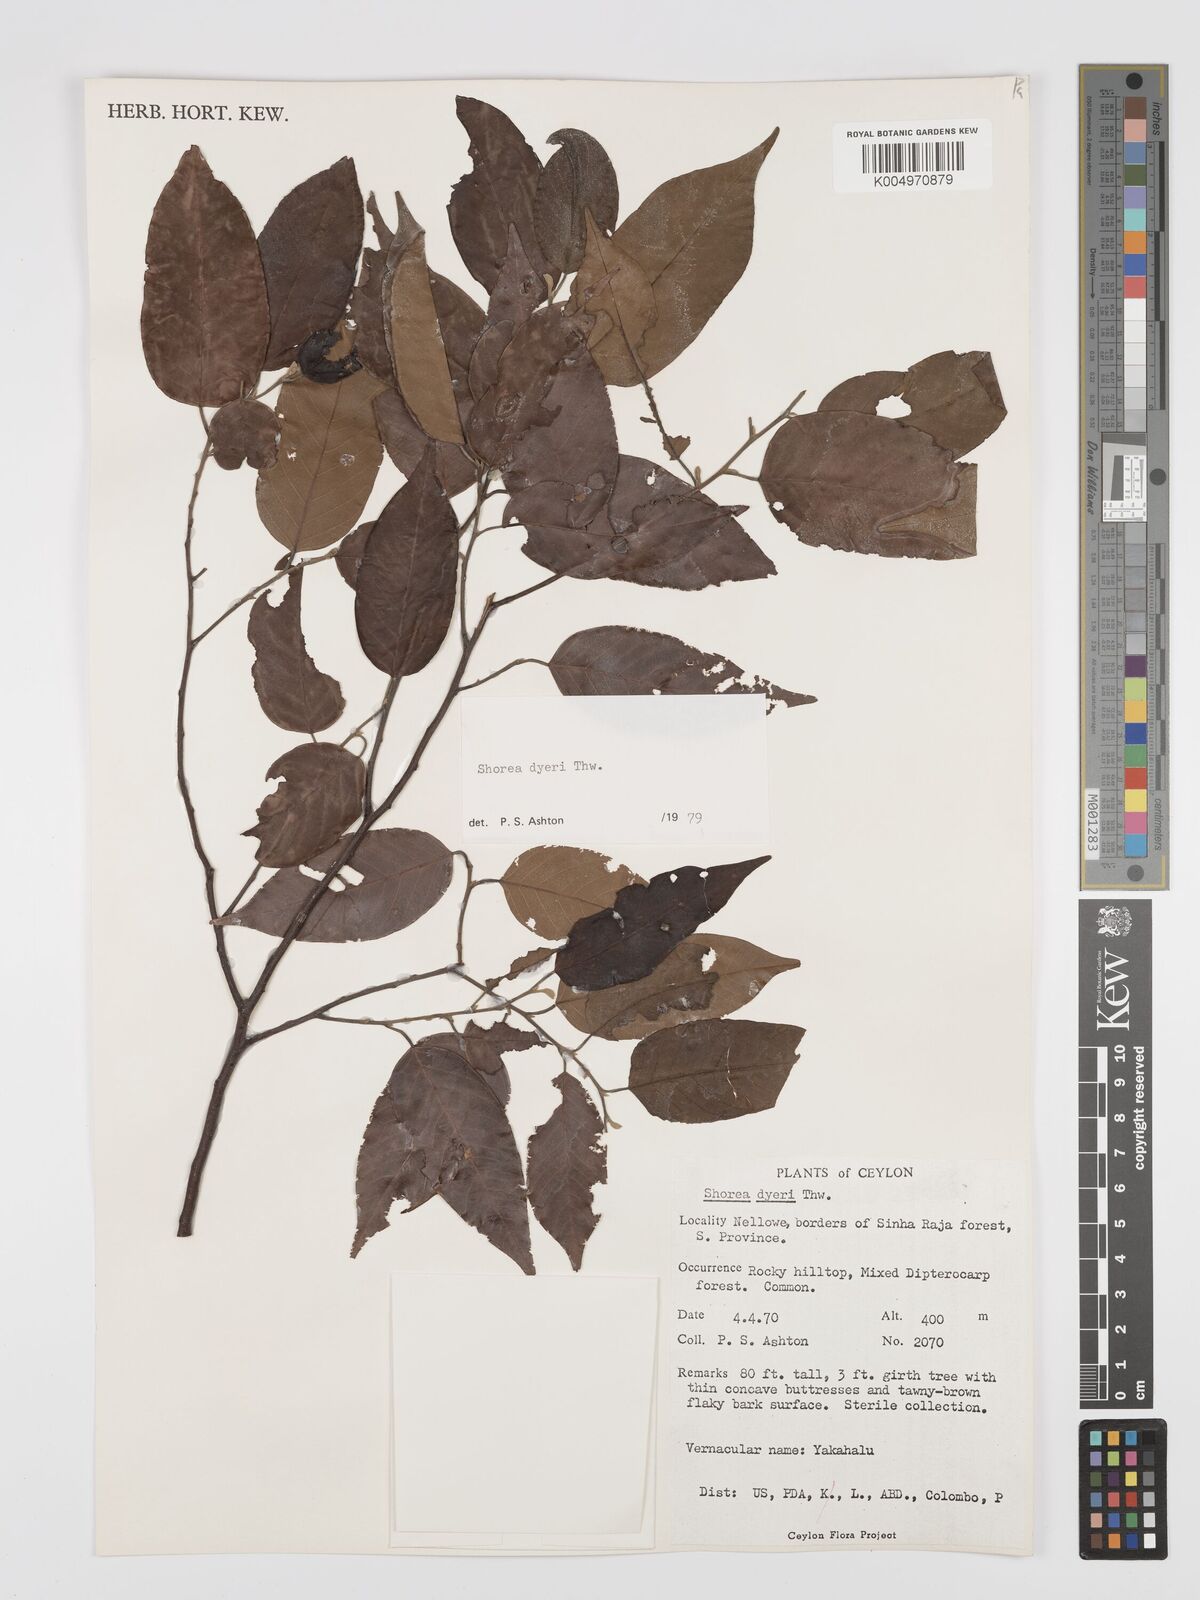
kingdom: Plantae
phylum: Tracheophyta
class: Magnoliopsida
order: Malvales
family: Dipterocarpaceae
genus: Shorea
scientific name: Shorea dyeri
